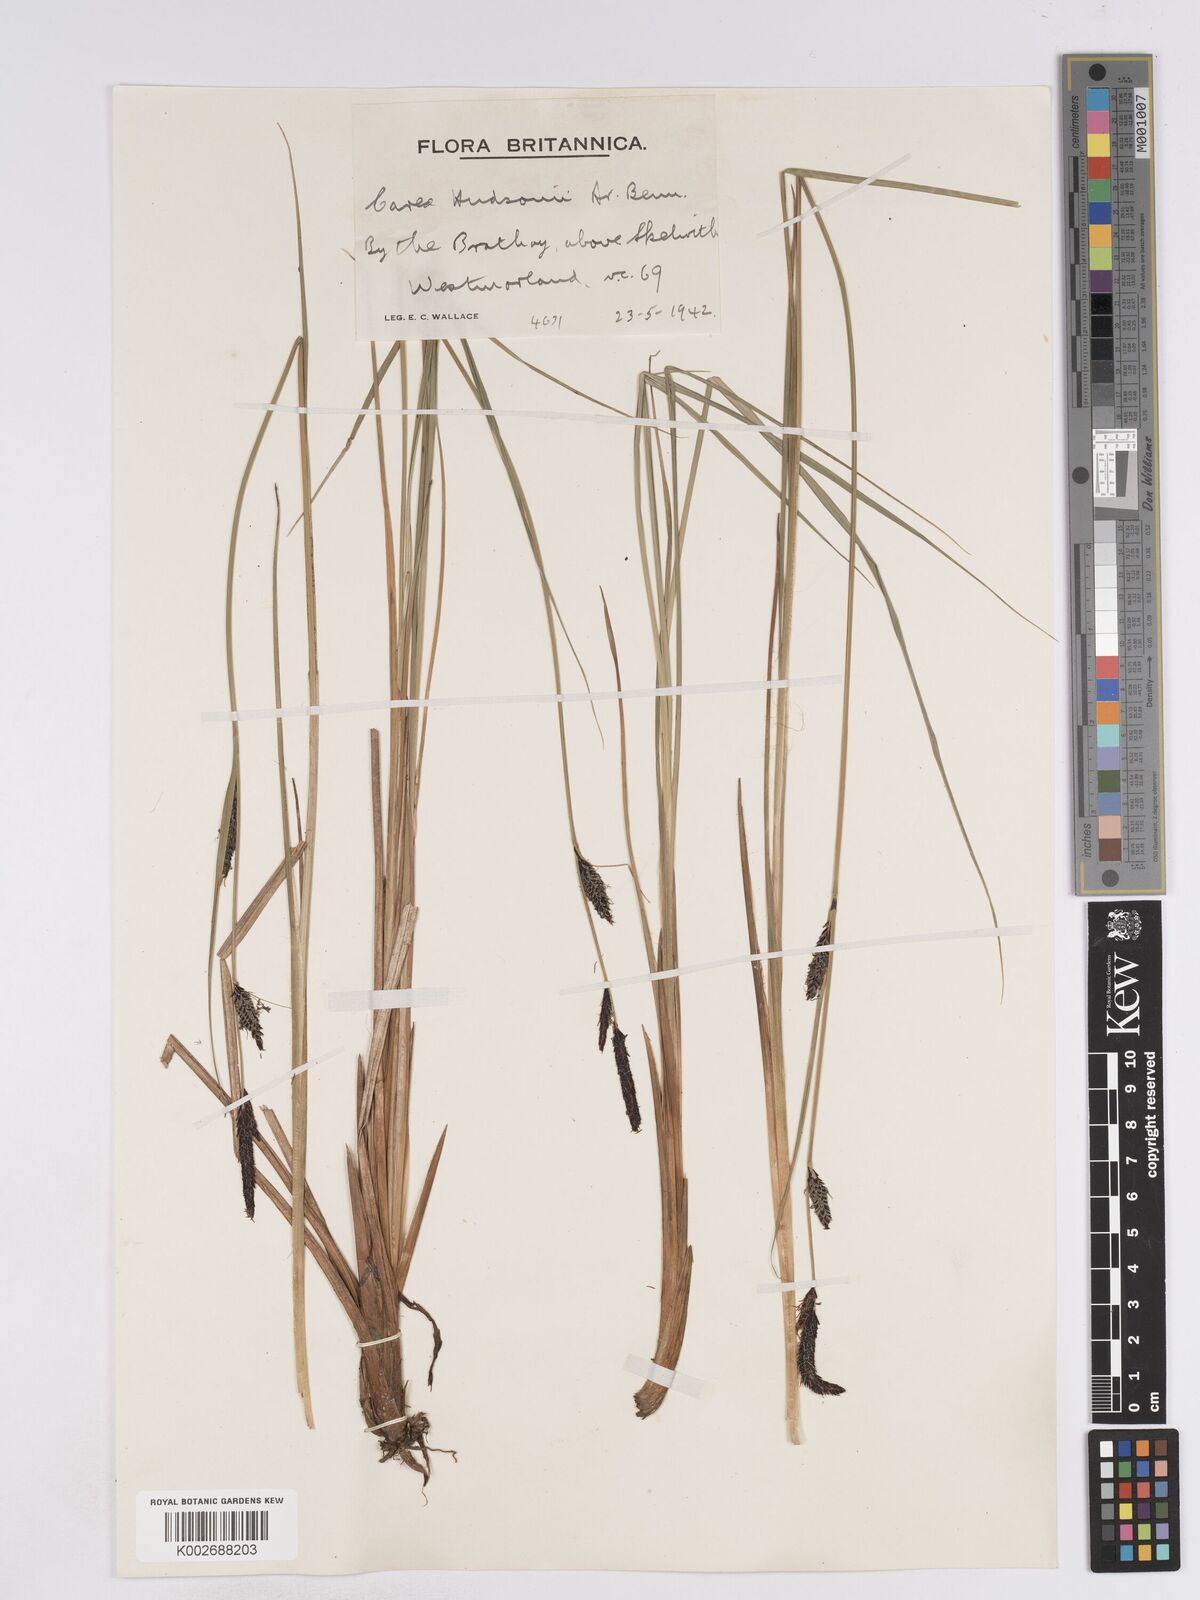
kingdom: Plantae
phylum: Tracheophyta
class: Liliopsida
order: Poales
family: Cyperaceae
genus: Carex
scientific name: Carex elata
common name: Tufted sedge
